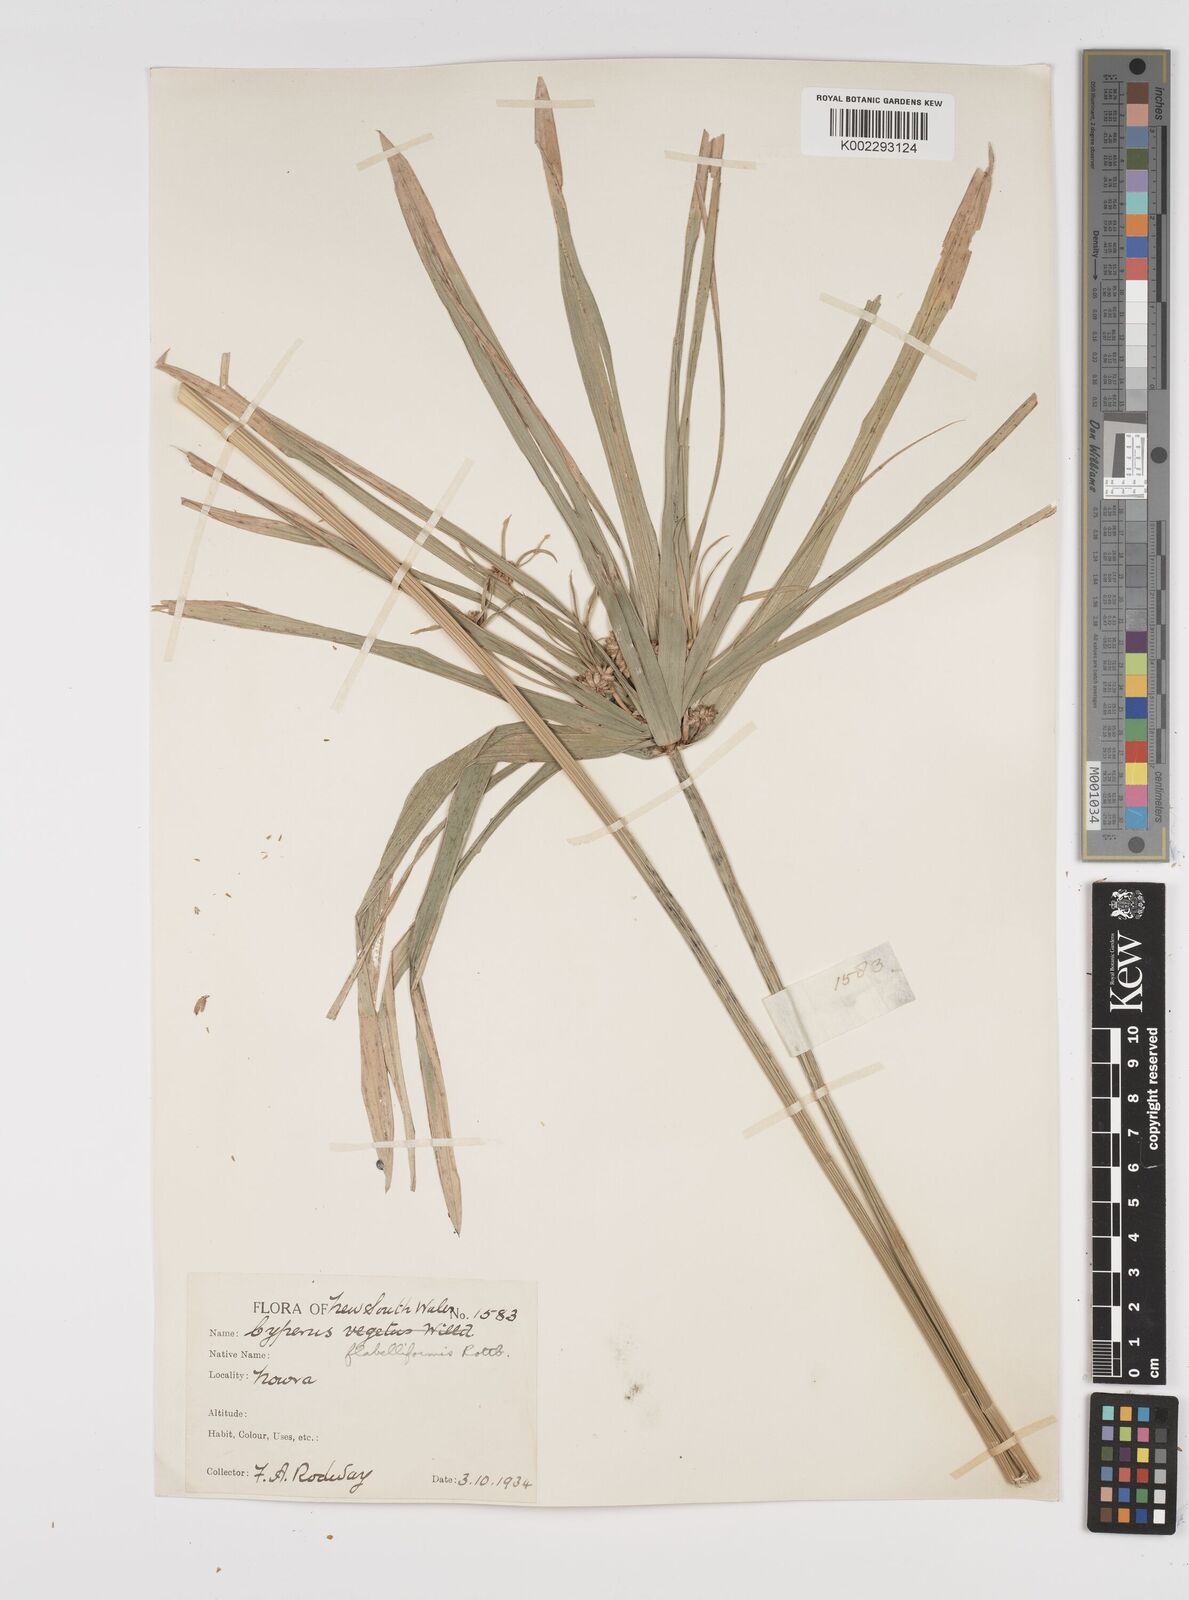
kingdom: Plantae
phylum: Tracheophyta
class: Liliopsida
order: Poales
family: Cyperaceae
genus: Cyperus
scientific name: Cyperus alternifolius
